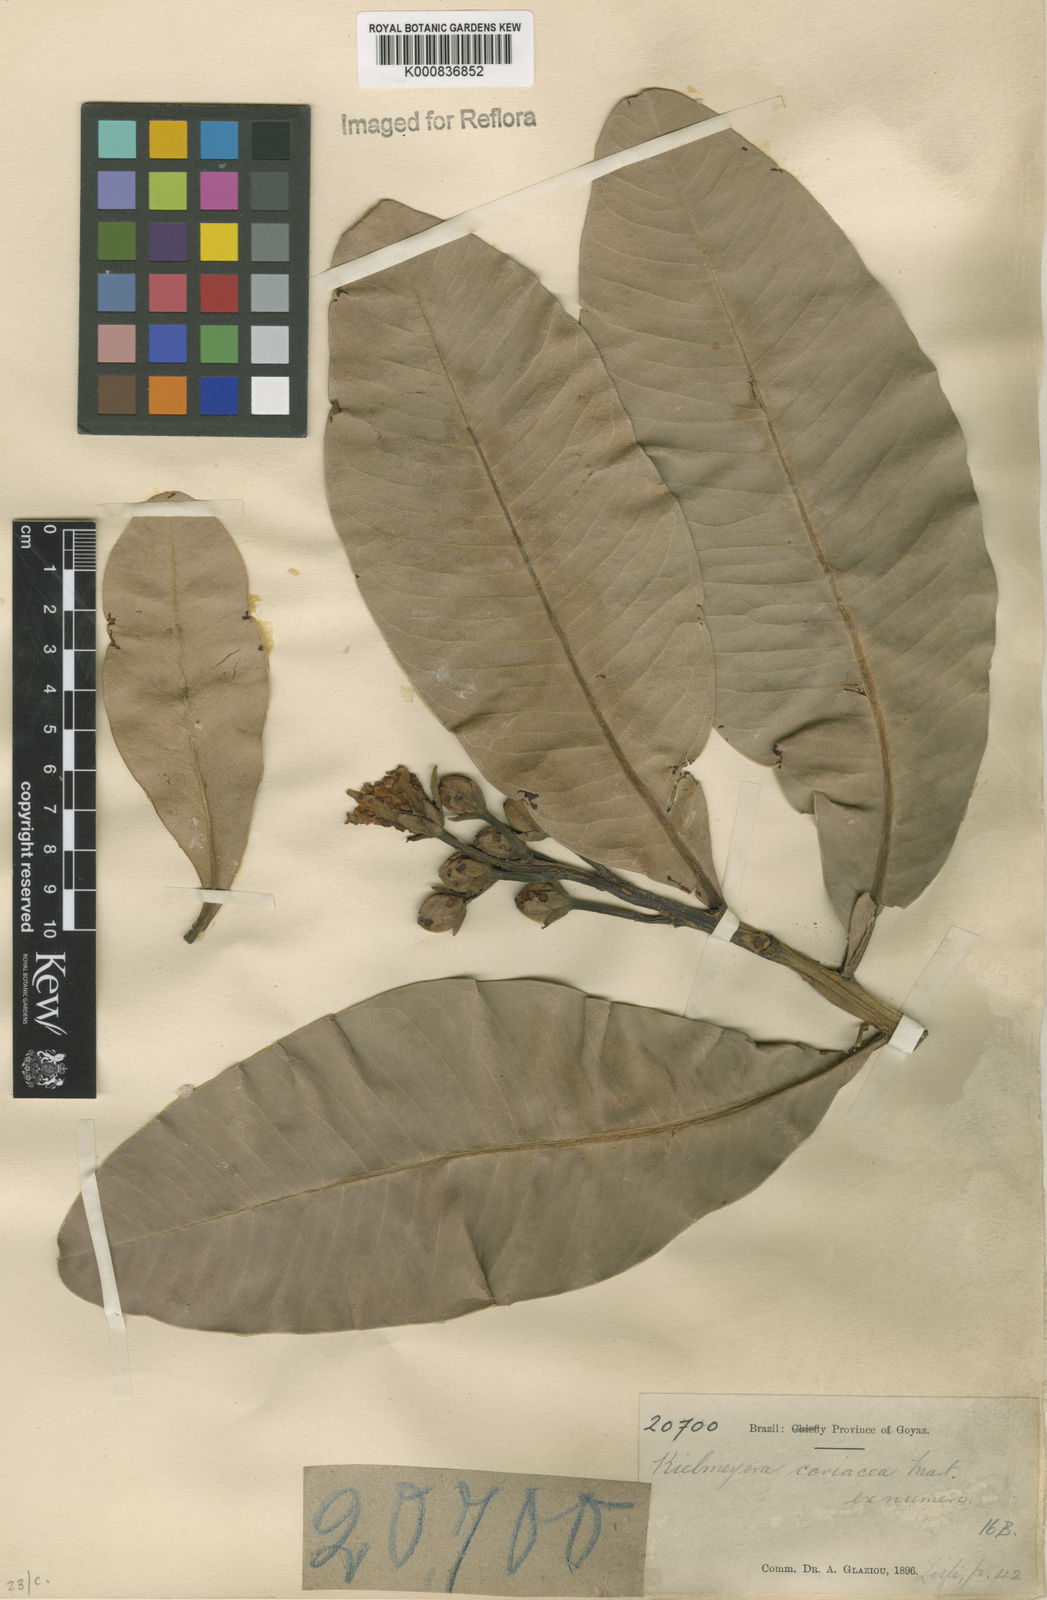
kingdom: Plantae
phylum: Tracheophyta
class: Magnoliopsida
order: Malpighiales
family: Calophyllaceae
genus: Kielmeyera
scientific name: Kielmeyera coriacea
